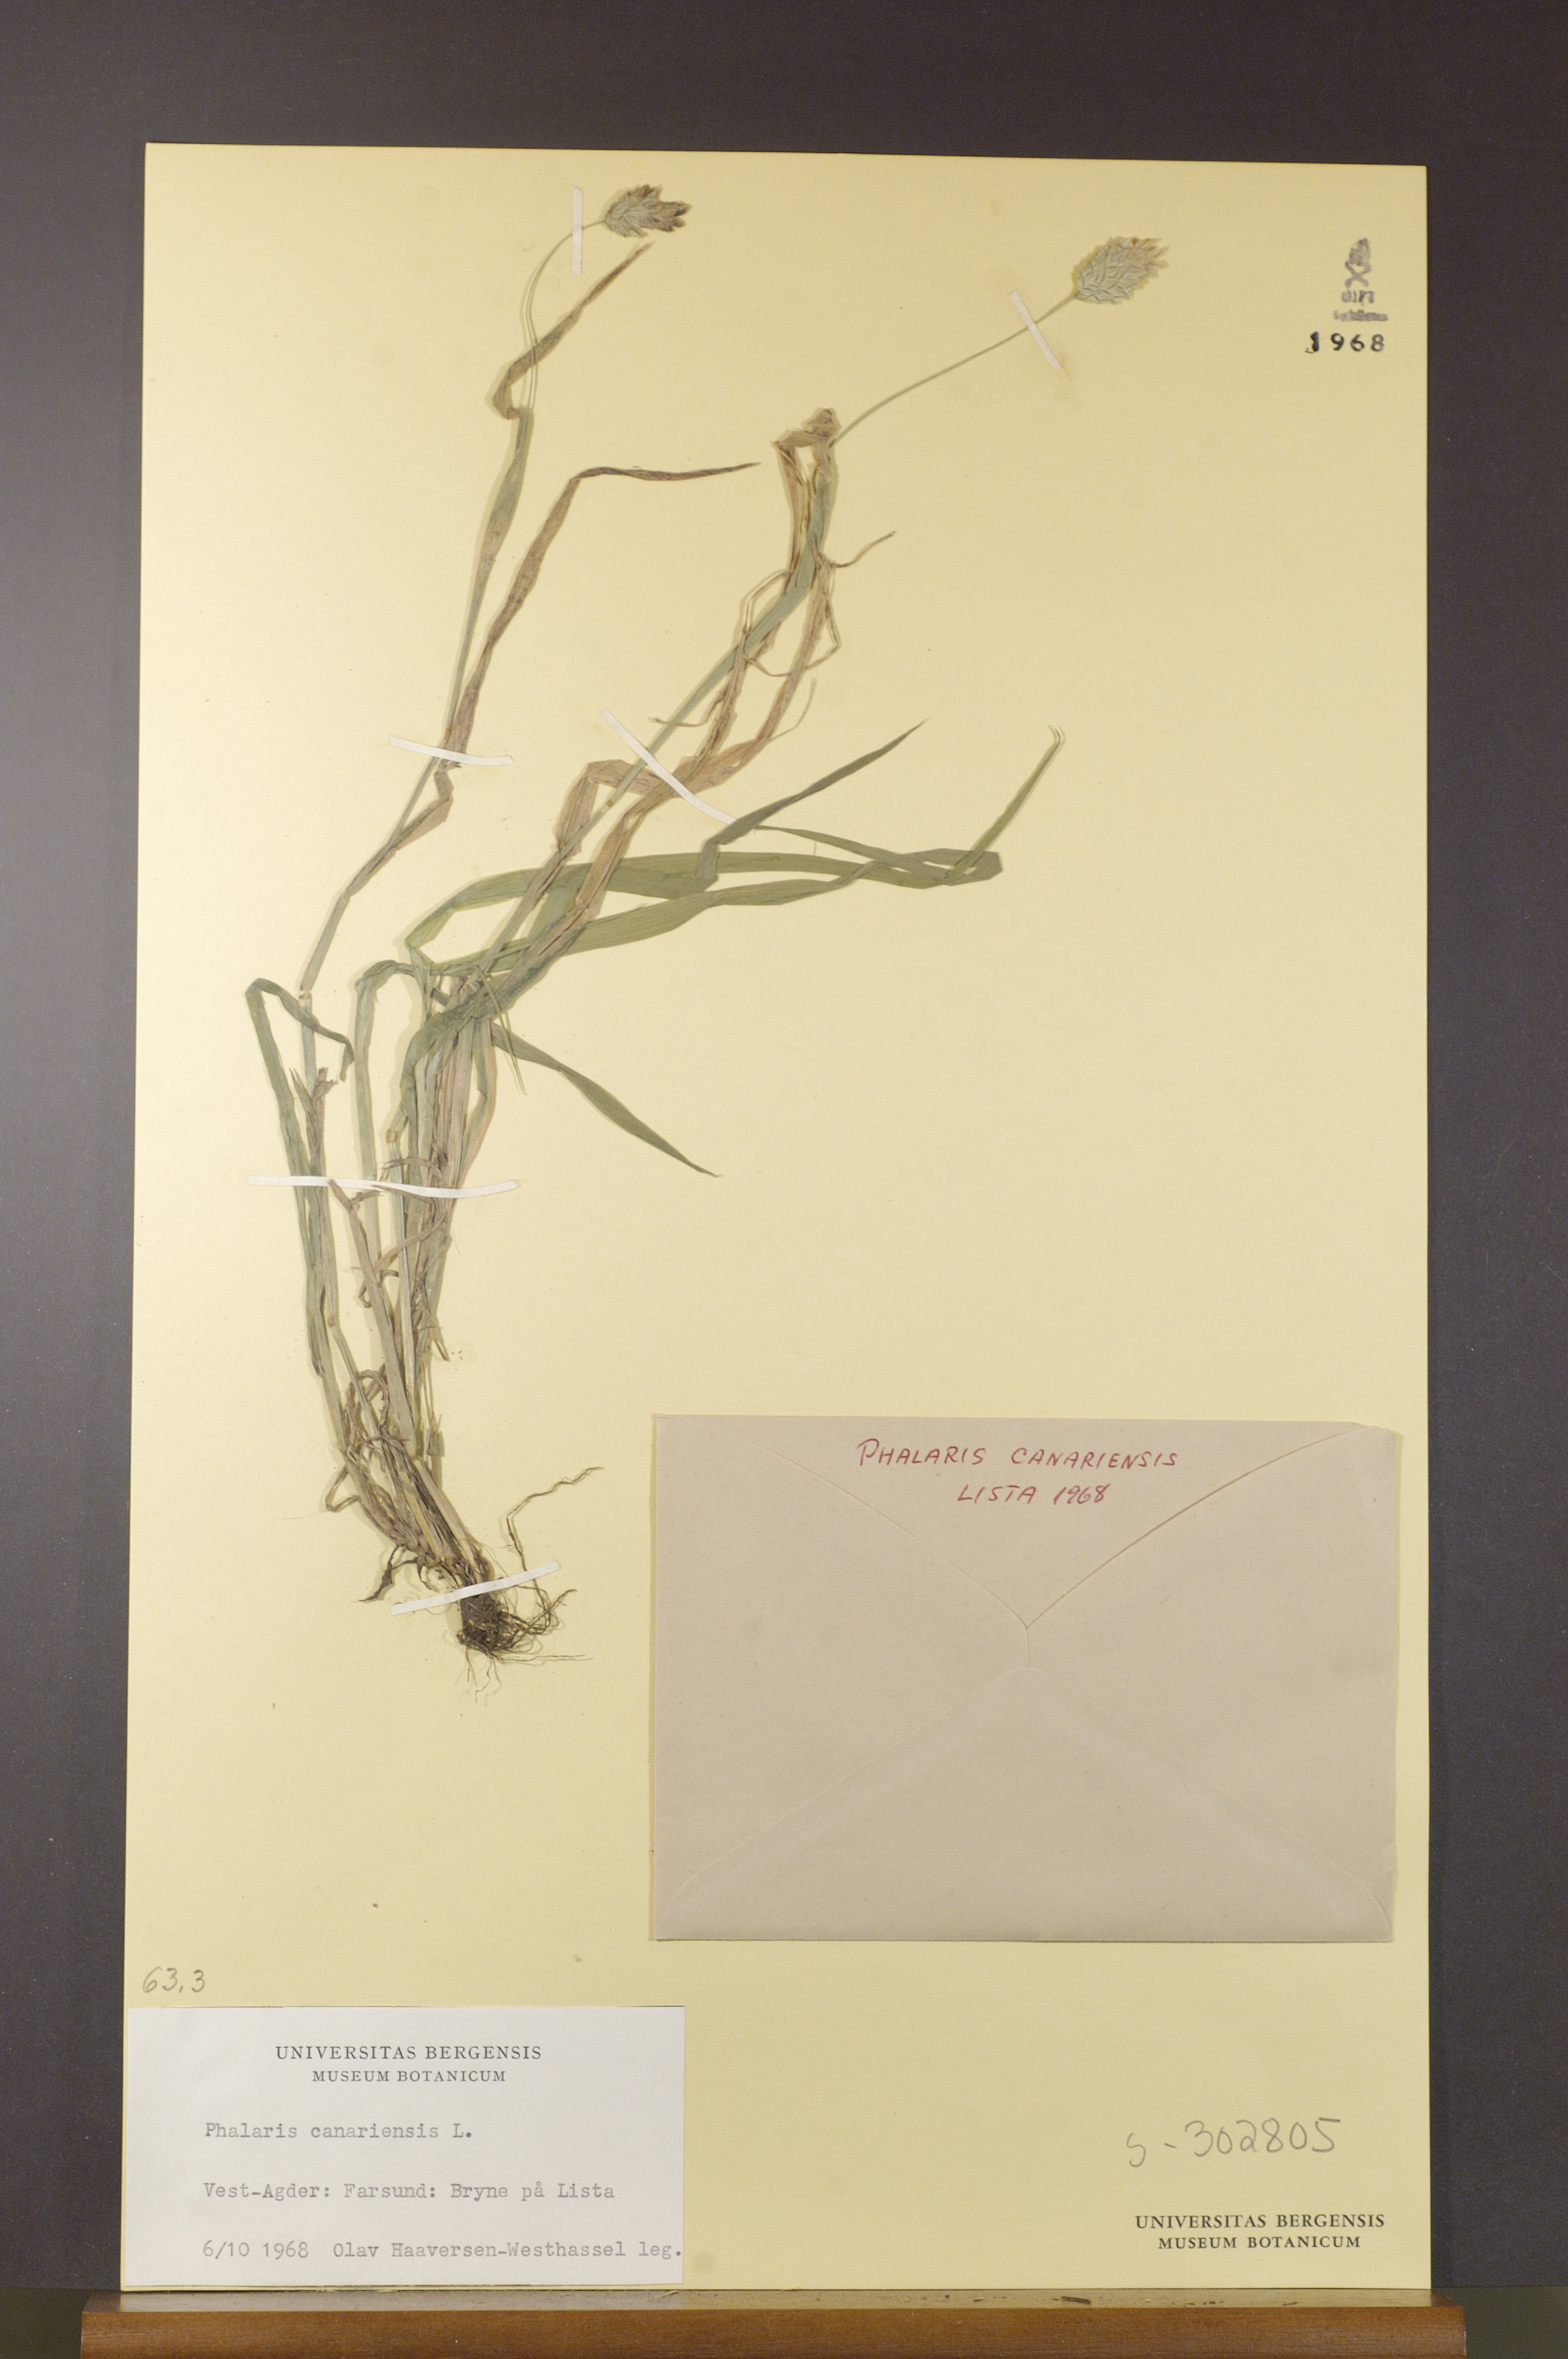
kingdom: Plantae
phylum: Tracheophyta
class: Liliopsida
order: Poales
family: Poaceae
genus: Phalaris
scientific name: Phalaris canariensis
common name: Annual canarygrass
